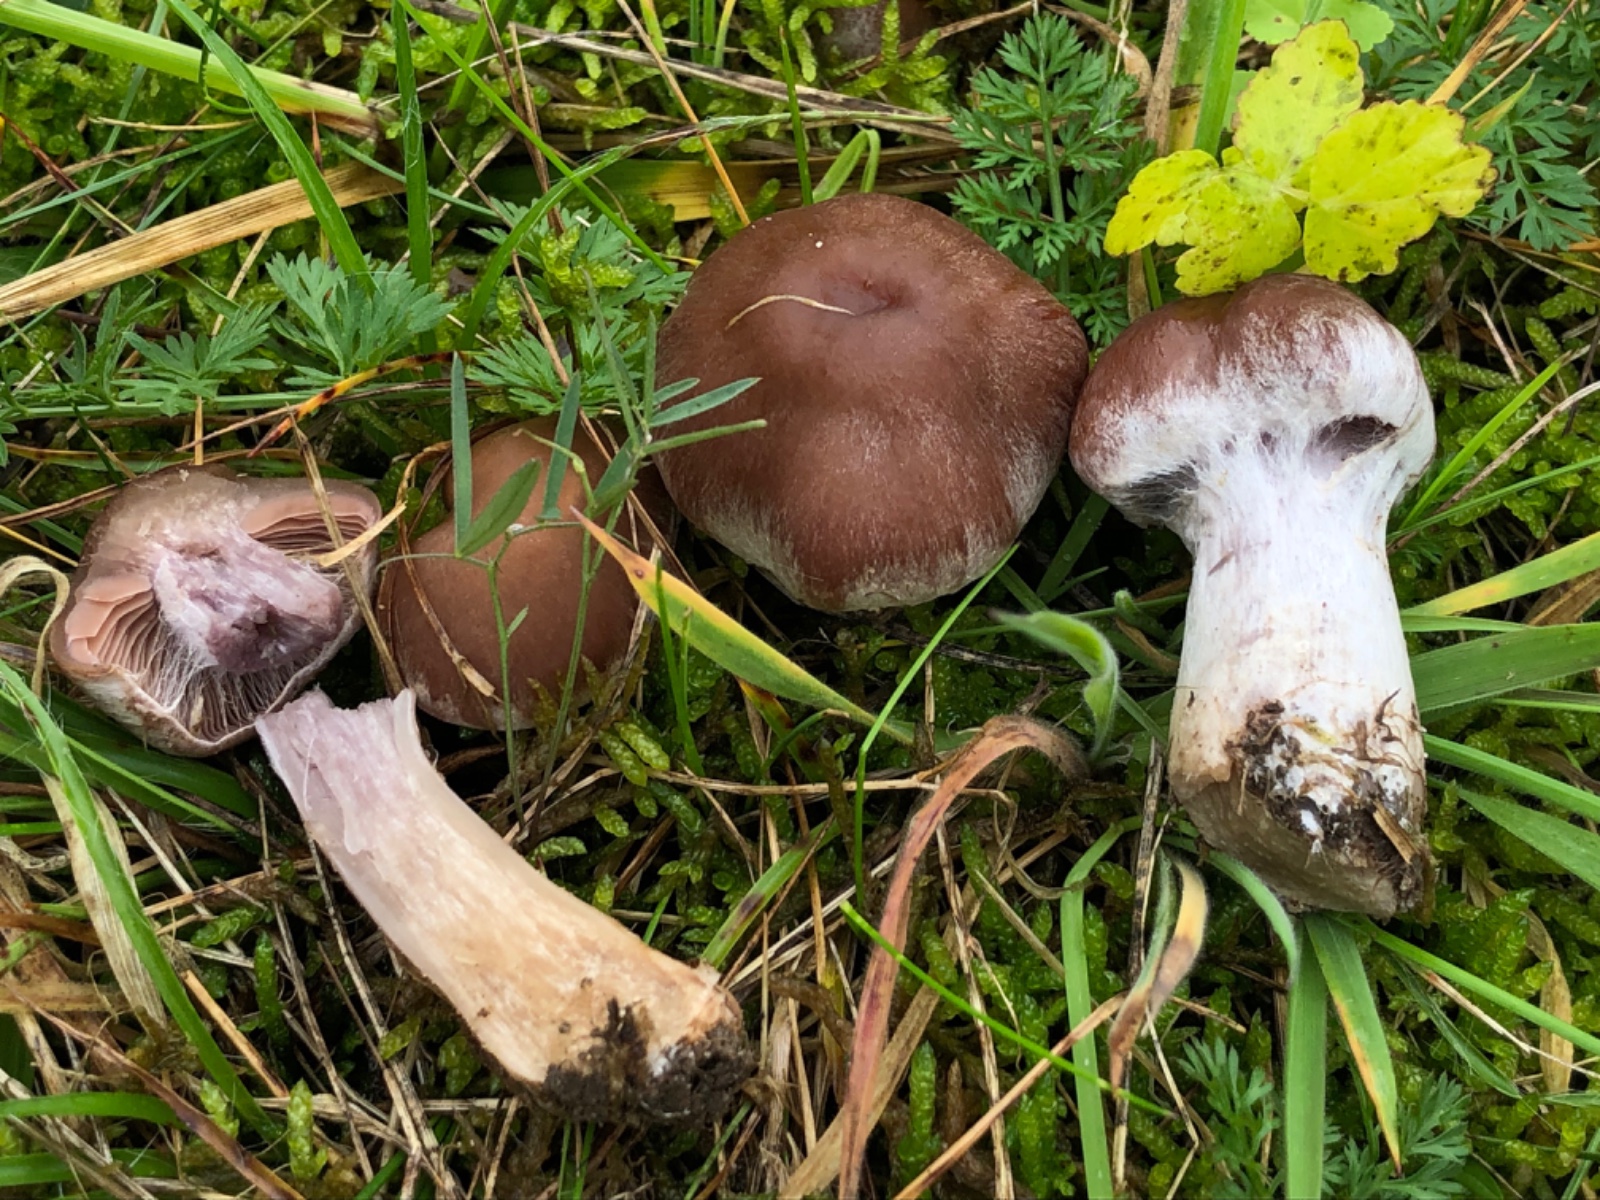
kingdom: Fungi
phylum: Basidiomycota
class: Agaricomycetes
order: Agaricales
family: Cortinariaceae
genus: Cortinarius
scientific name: Cortinarius saturninus
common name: brunviolet slørhat
